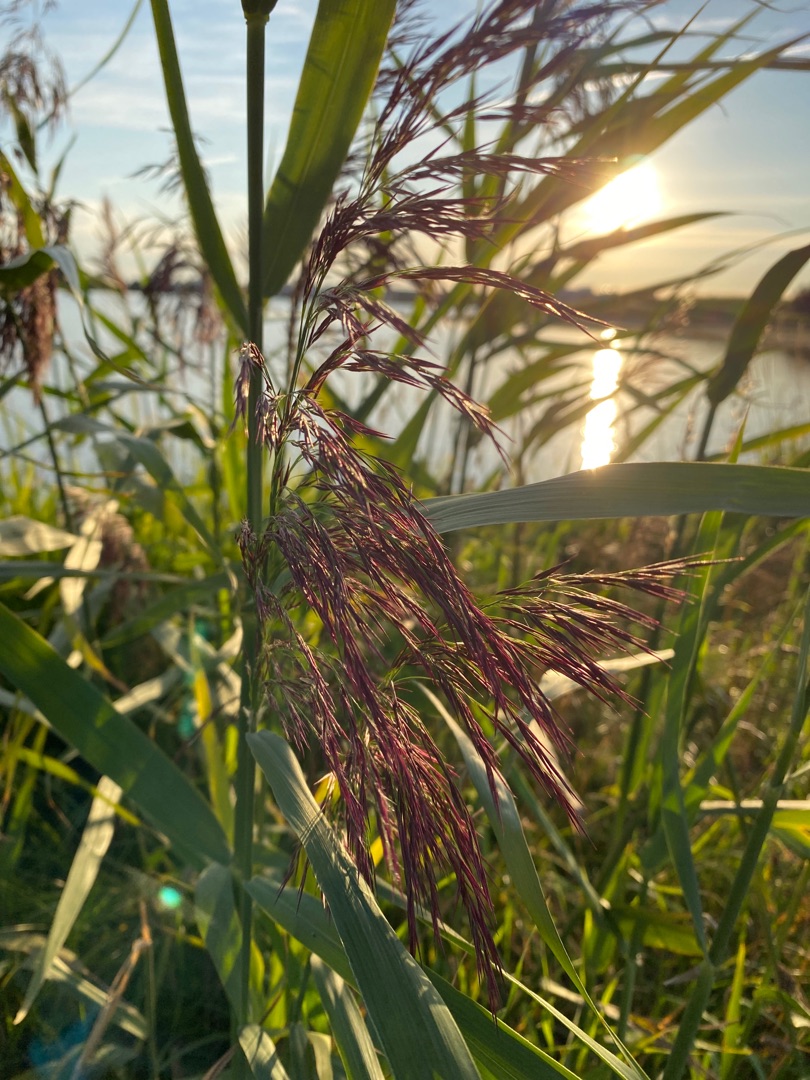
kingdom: Plantae
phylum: Tracheophyta
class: Liliopsida
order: Poales
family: Poaceae
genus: Phragmites
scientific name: Phragmites australis
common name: Tagrør
